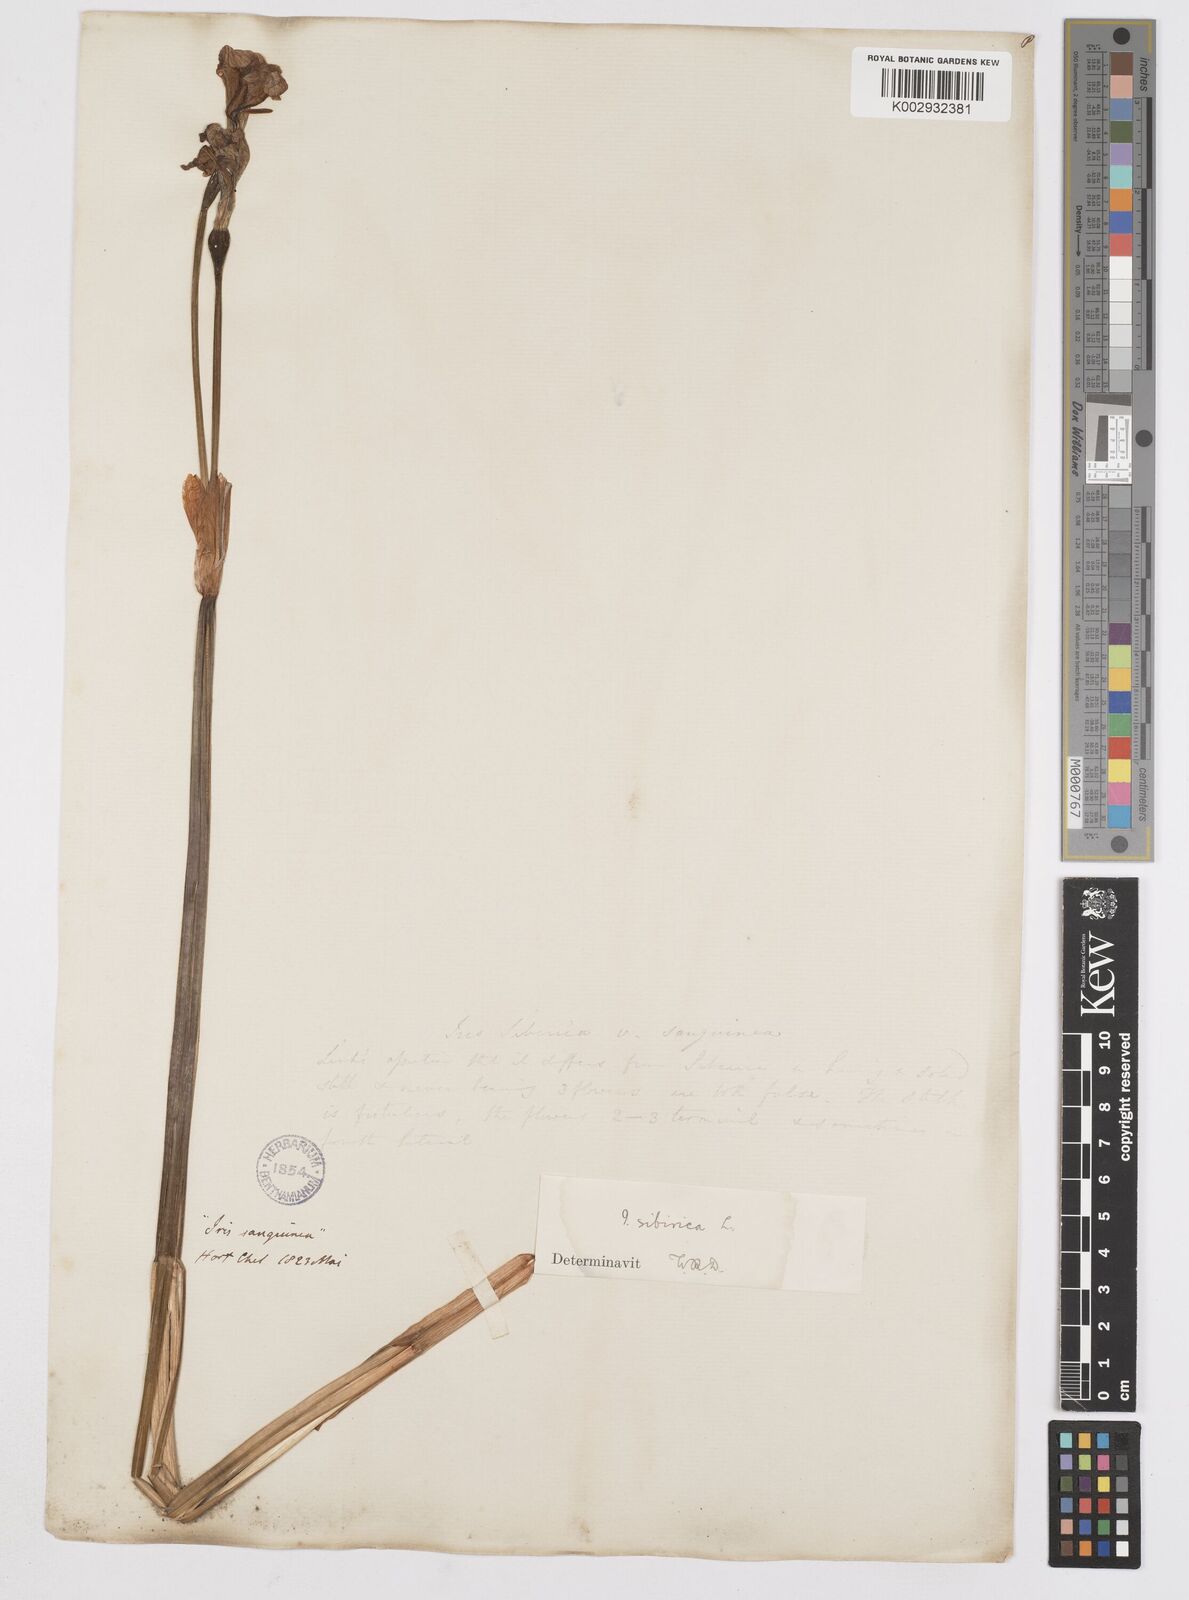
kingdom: Plantae
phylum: Tracheophyta
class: Liliopsida
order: Asparagales
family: Iridaceae
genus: Iris
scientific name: Iris sibirica
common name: Siberian iris
